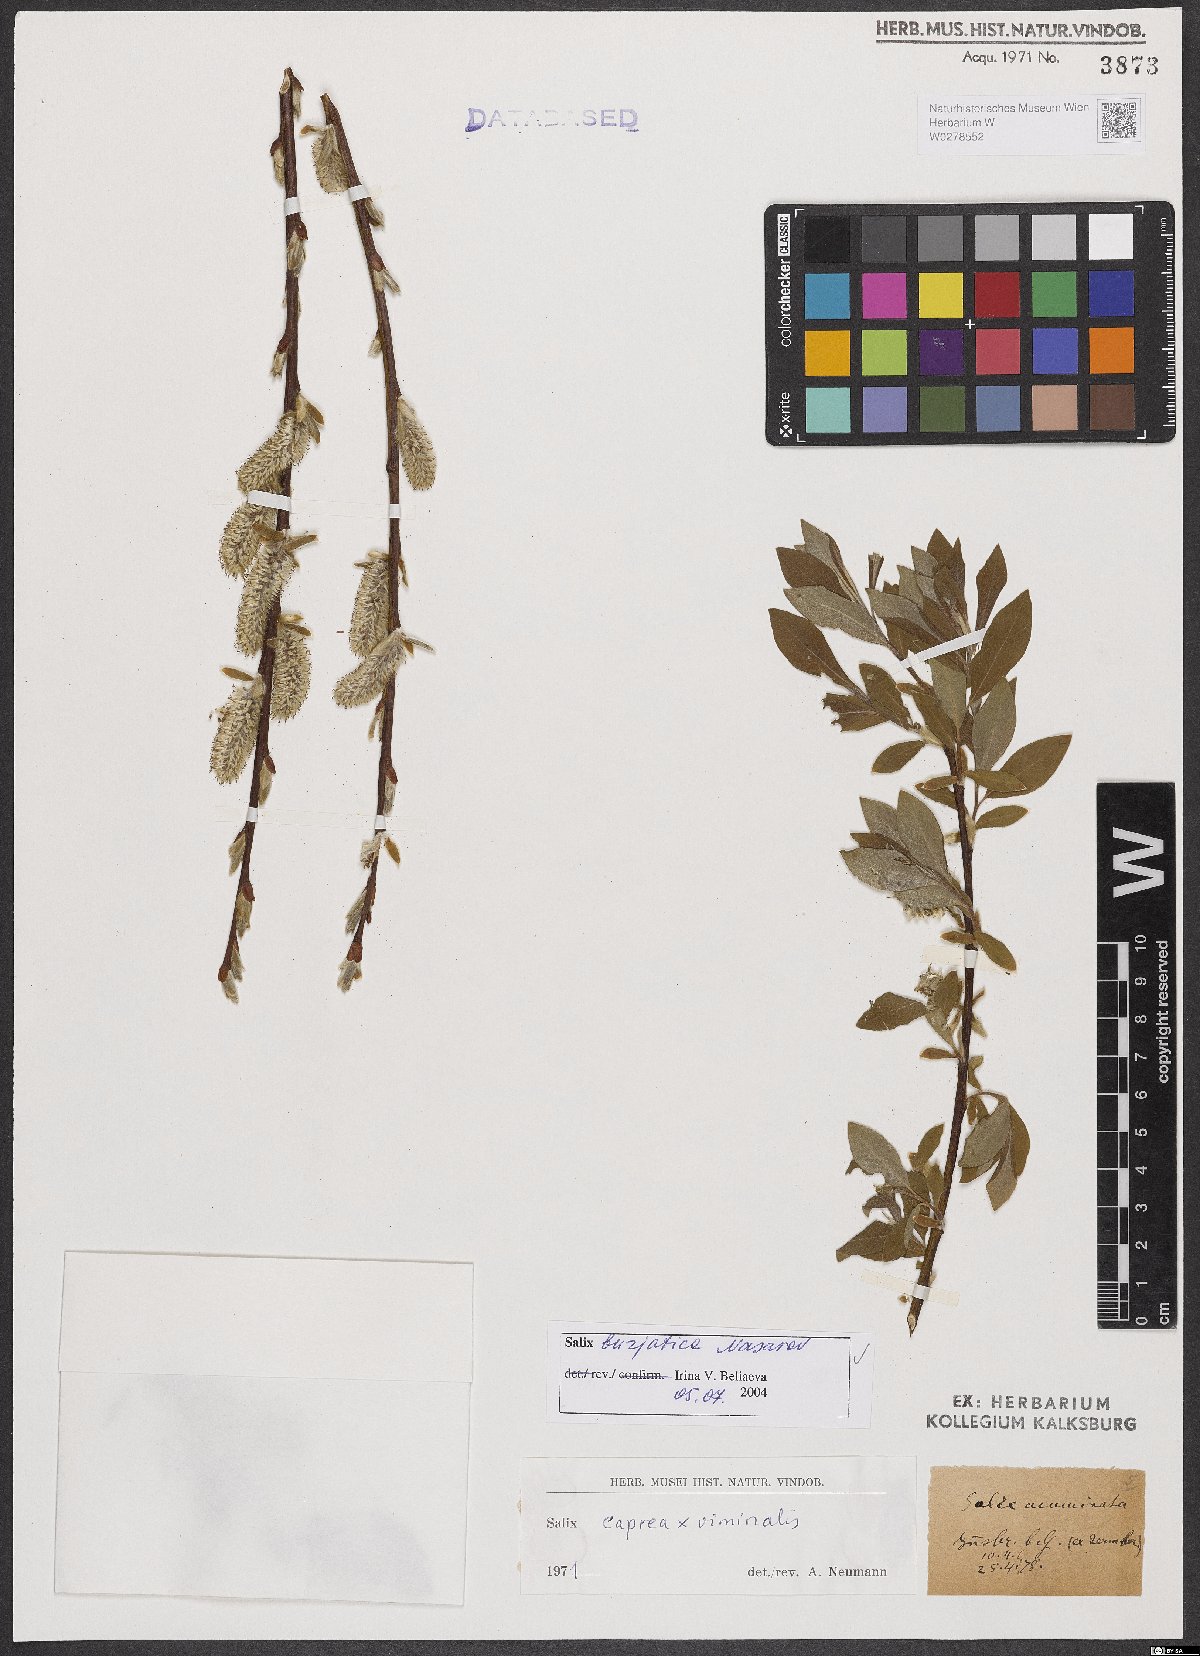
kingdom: Plantae
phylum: Tracheophyta
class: Magnoliopsida
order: Malpighiales
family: Salicaceae
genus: Salix
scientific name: Salix gmelinii
